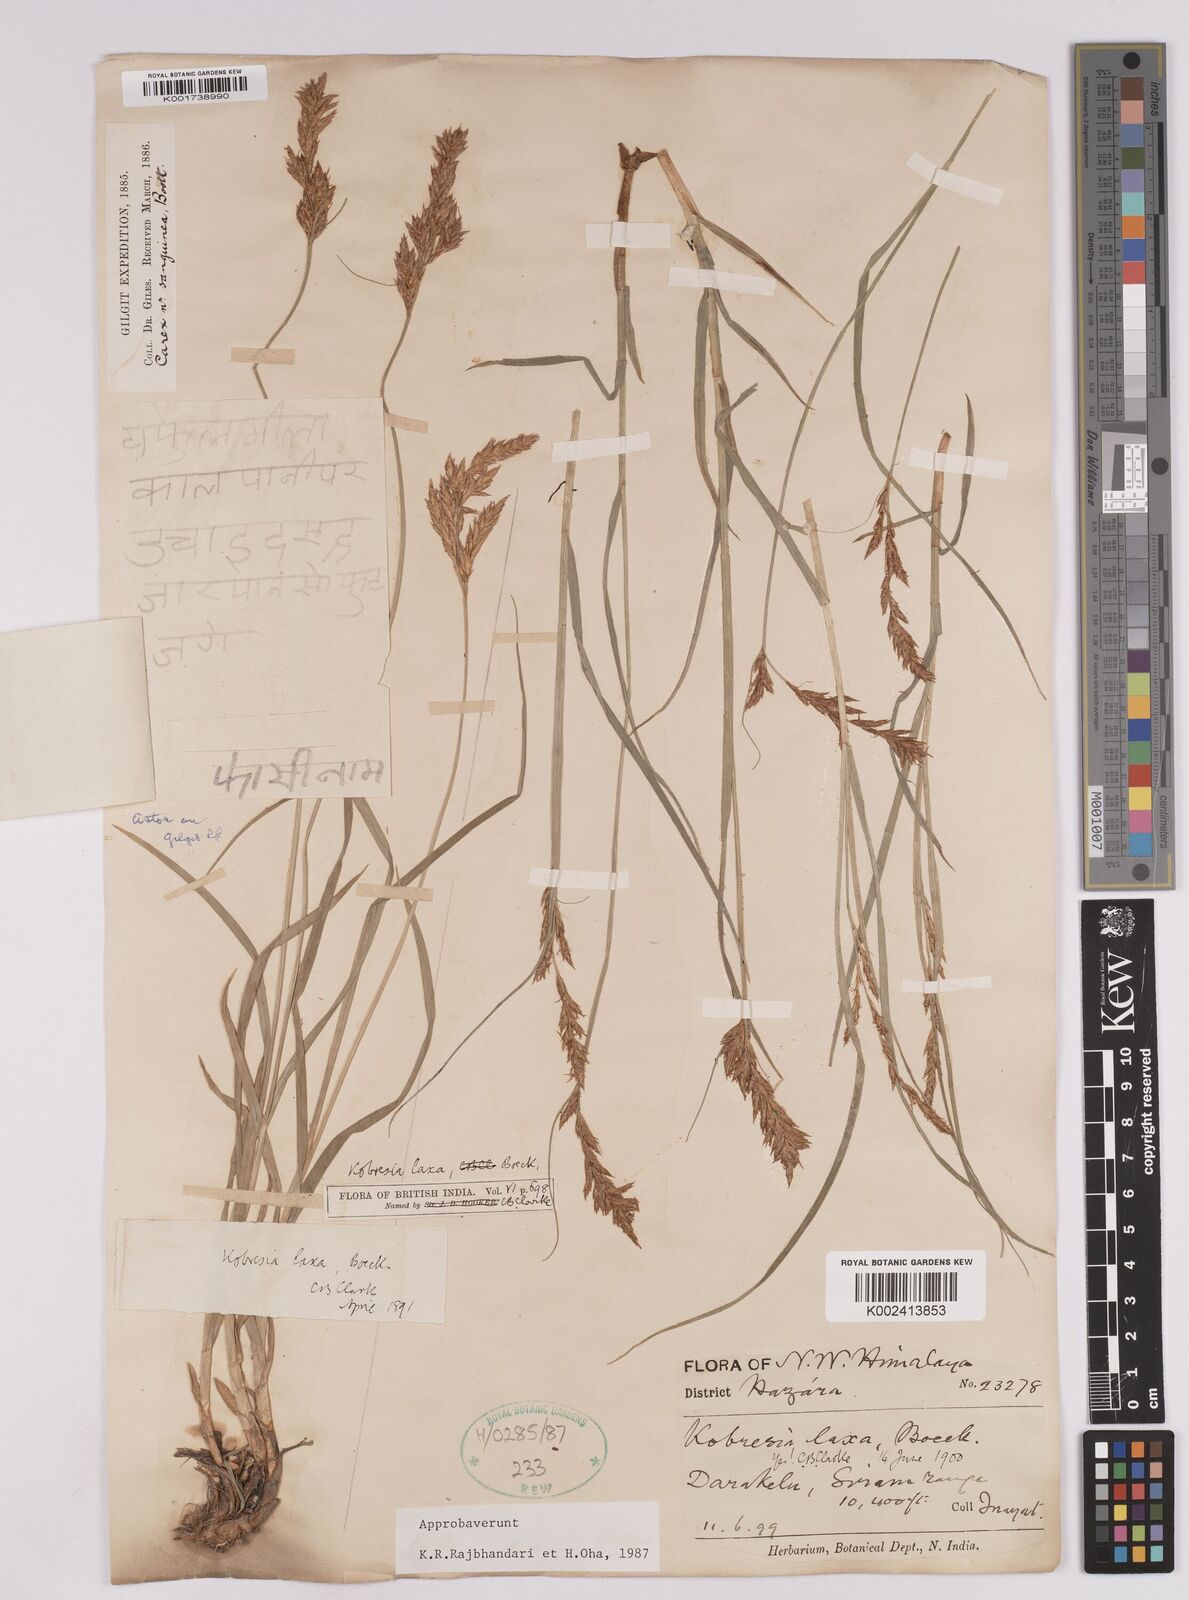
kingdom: Plantae
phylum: Tracheophyta
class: Liliopsida
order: Poales
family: Cyperaceae
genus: Carex
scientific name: Carex pseudolaxa
